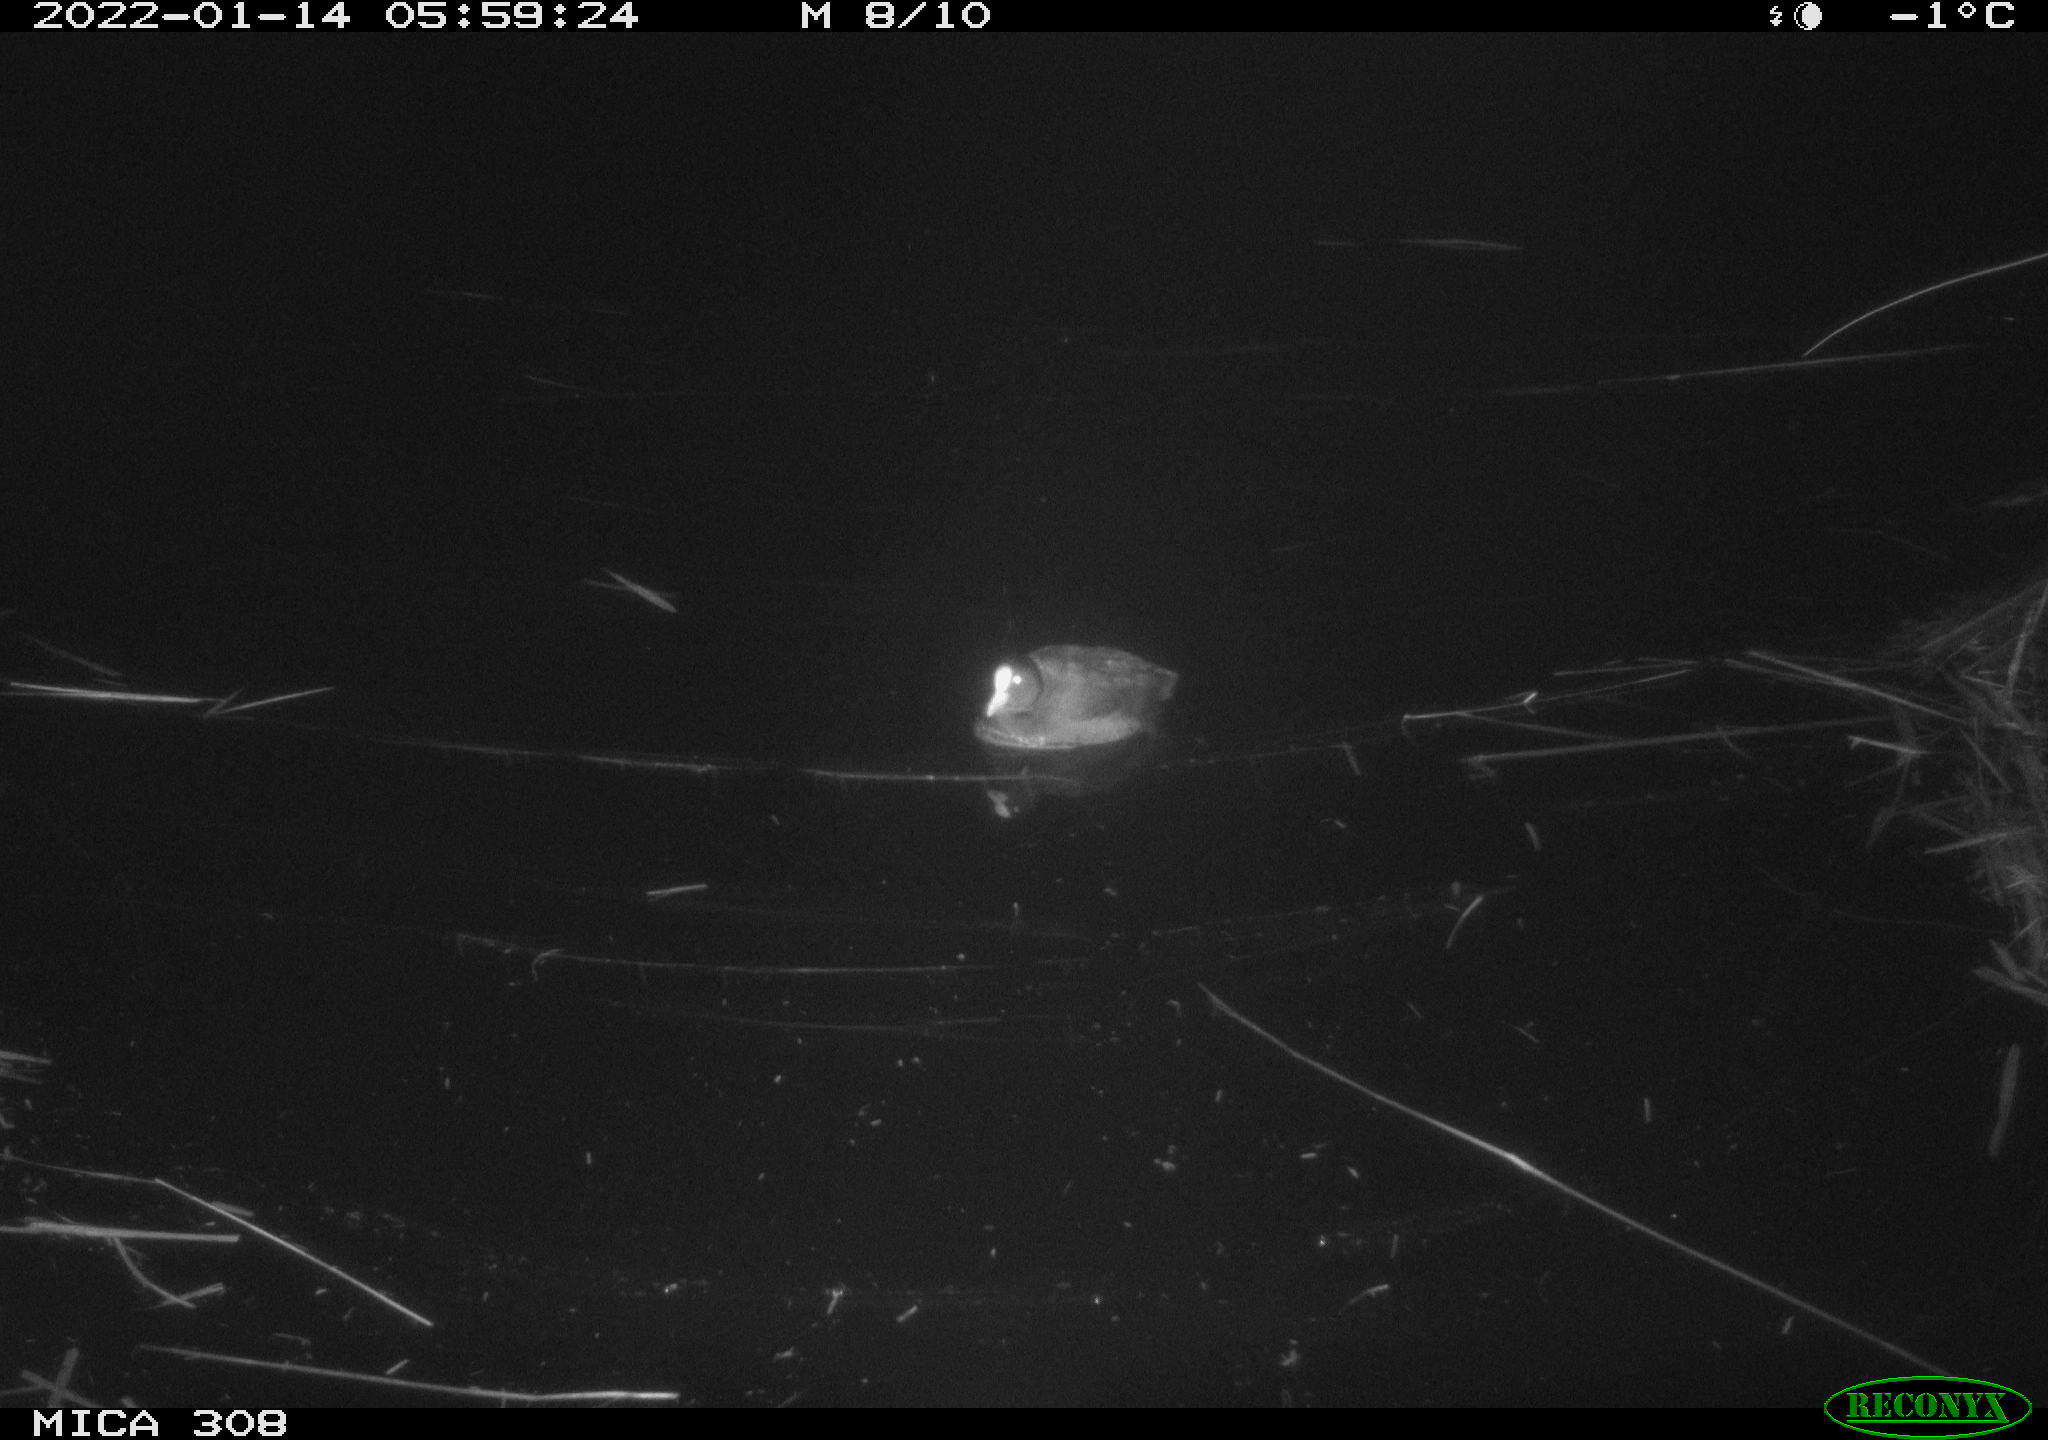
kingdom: Animalia
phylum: Chordata
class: Aves
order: Gruiformes
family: Rallidae
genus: Fulica
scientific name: Fulica atra
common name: Eurasian coot
